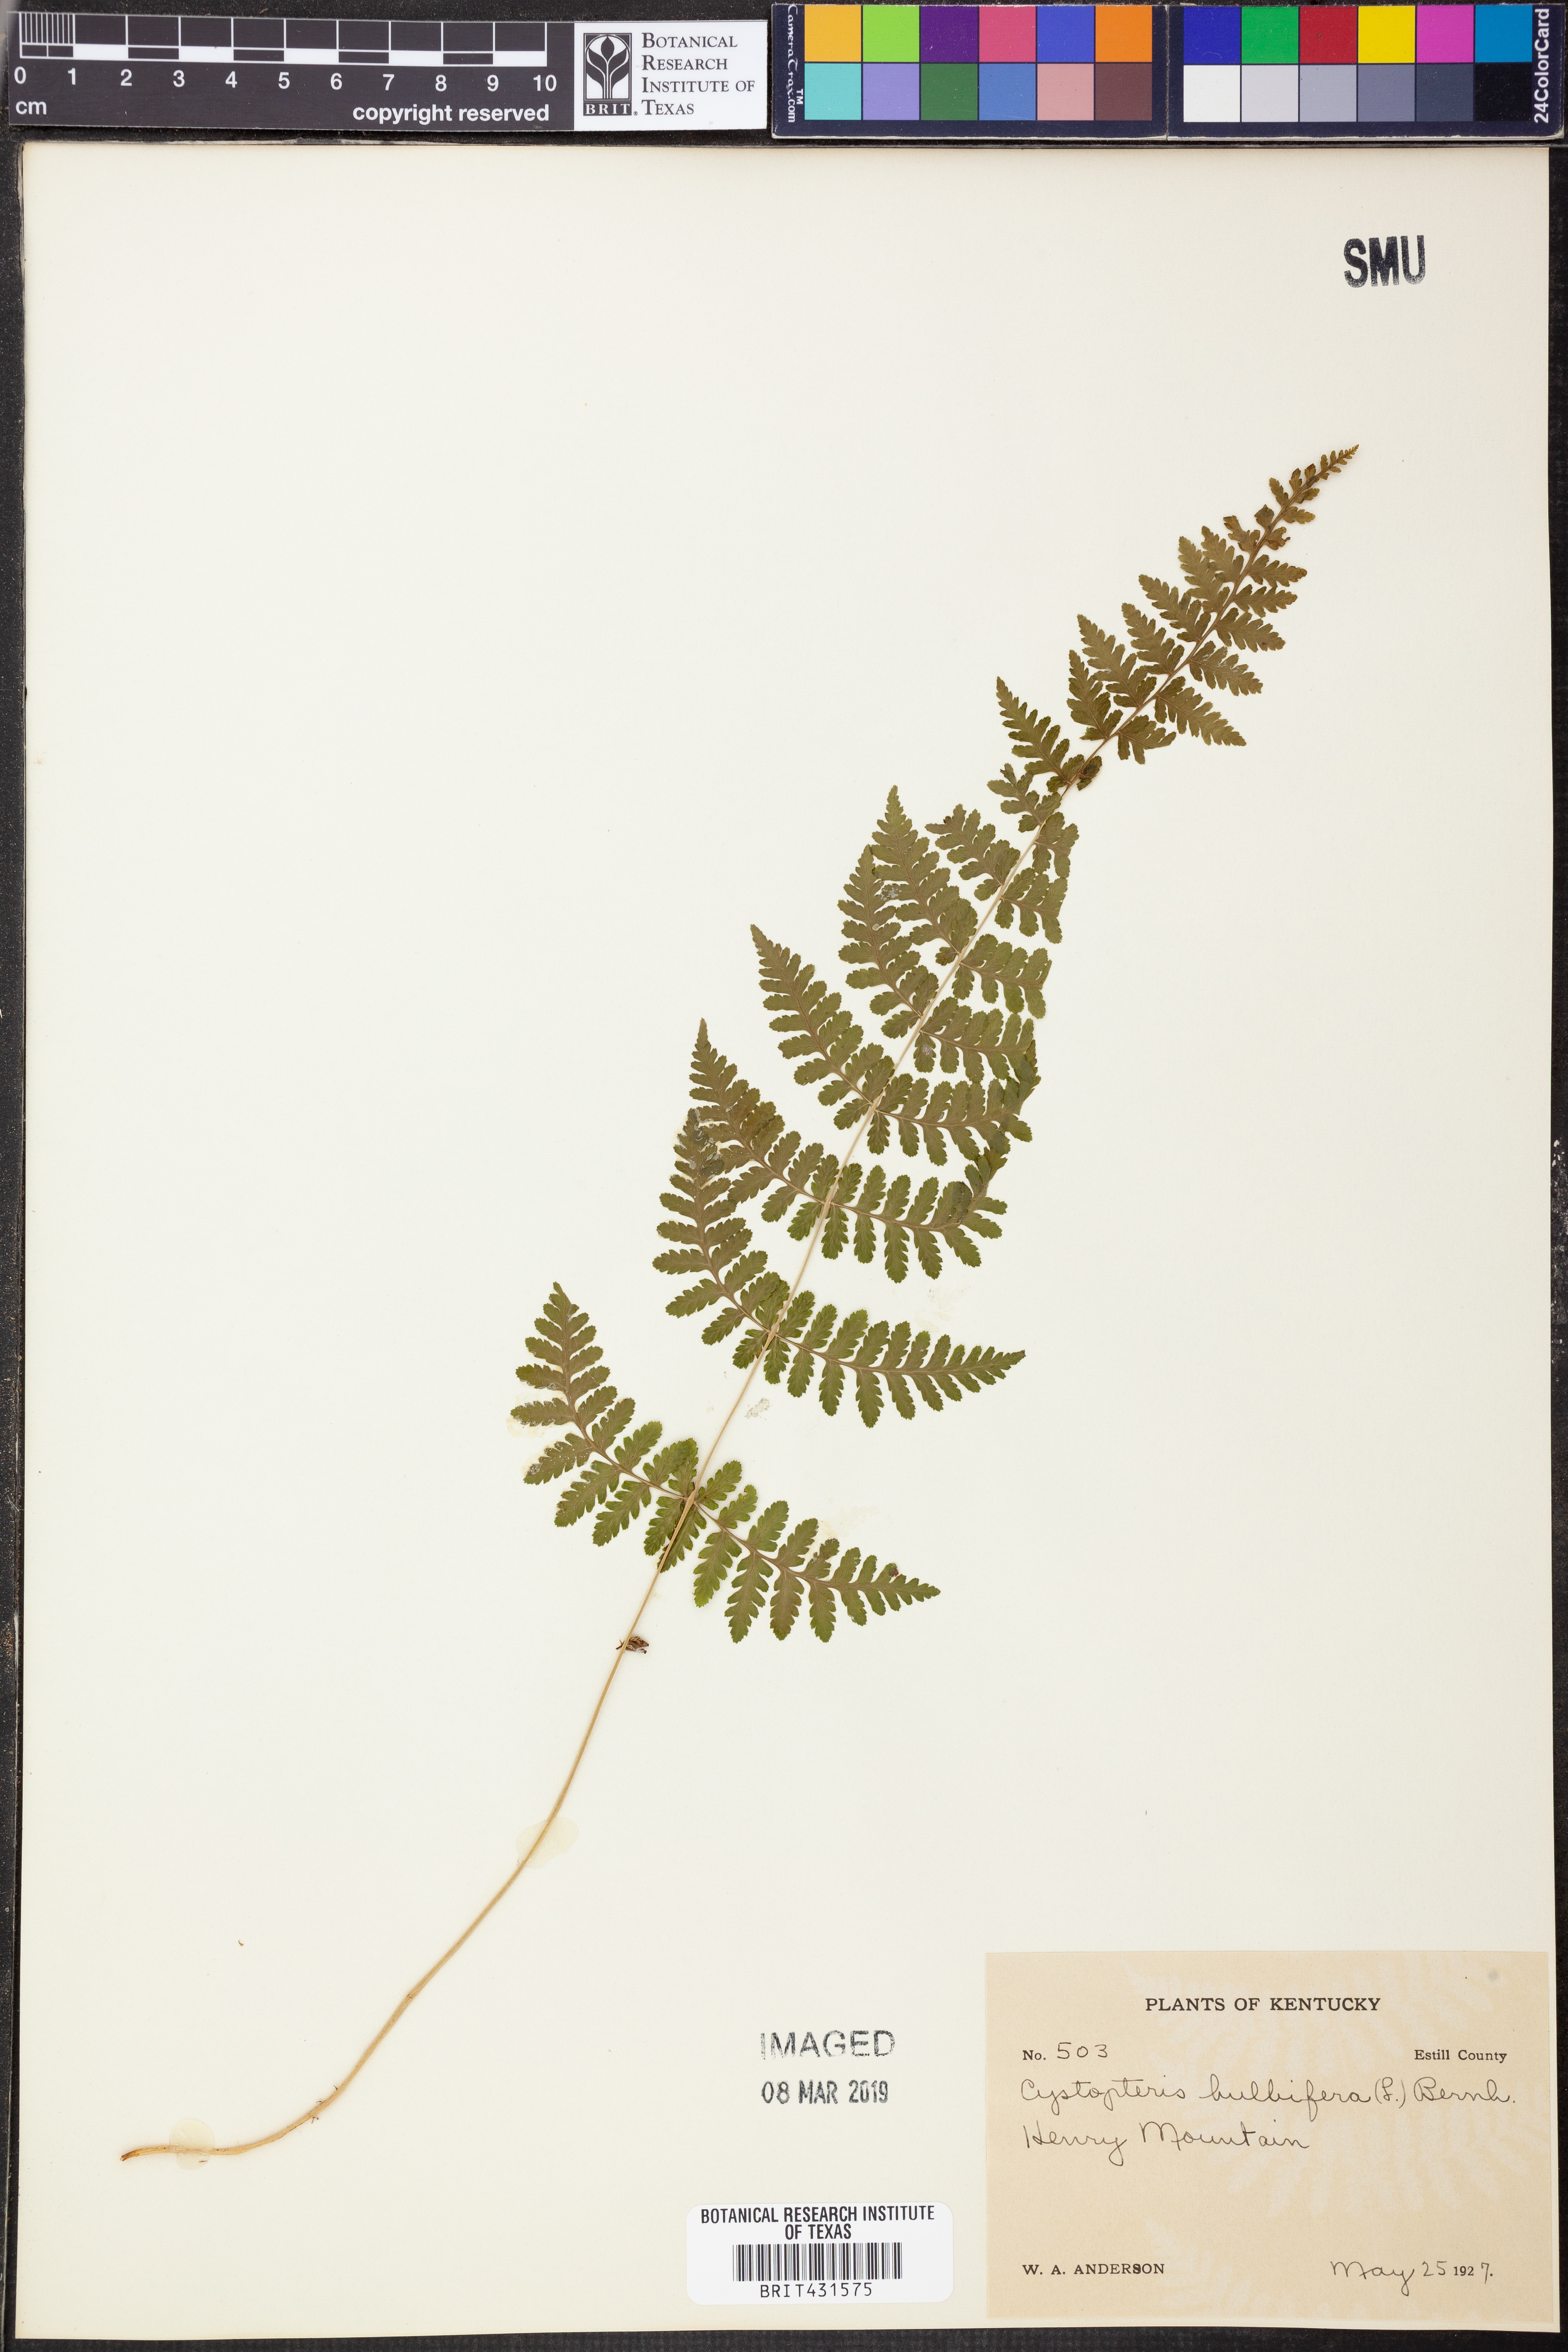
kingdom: Plantae
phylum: Tracheophyta
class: Polypodiopsida
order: Polypodiales
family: Cystopteridaceae
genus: Cystopteris
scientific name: Cystopteris bulbifera
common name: Bulblet bladder fern
